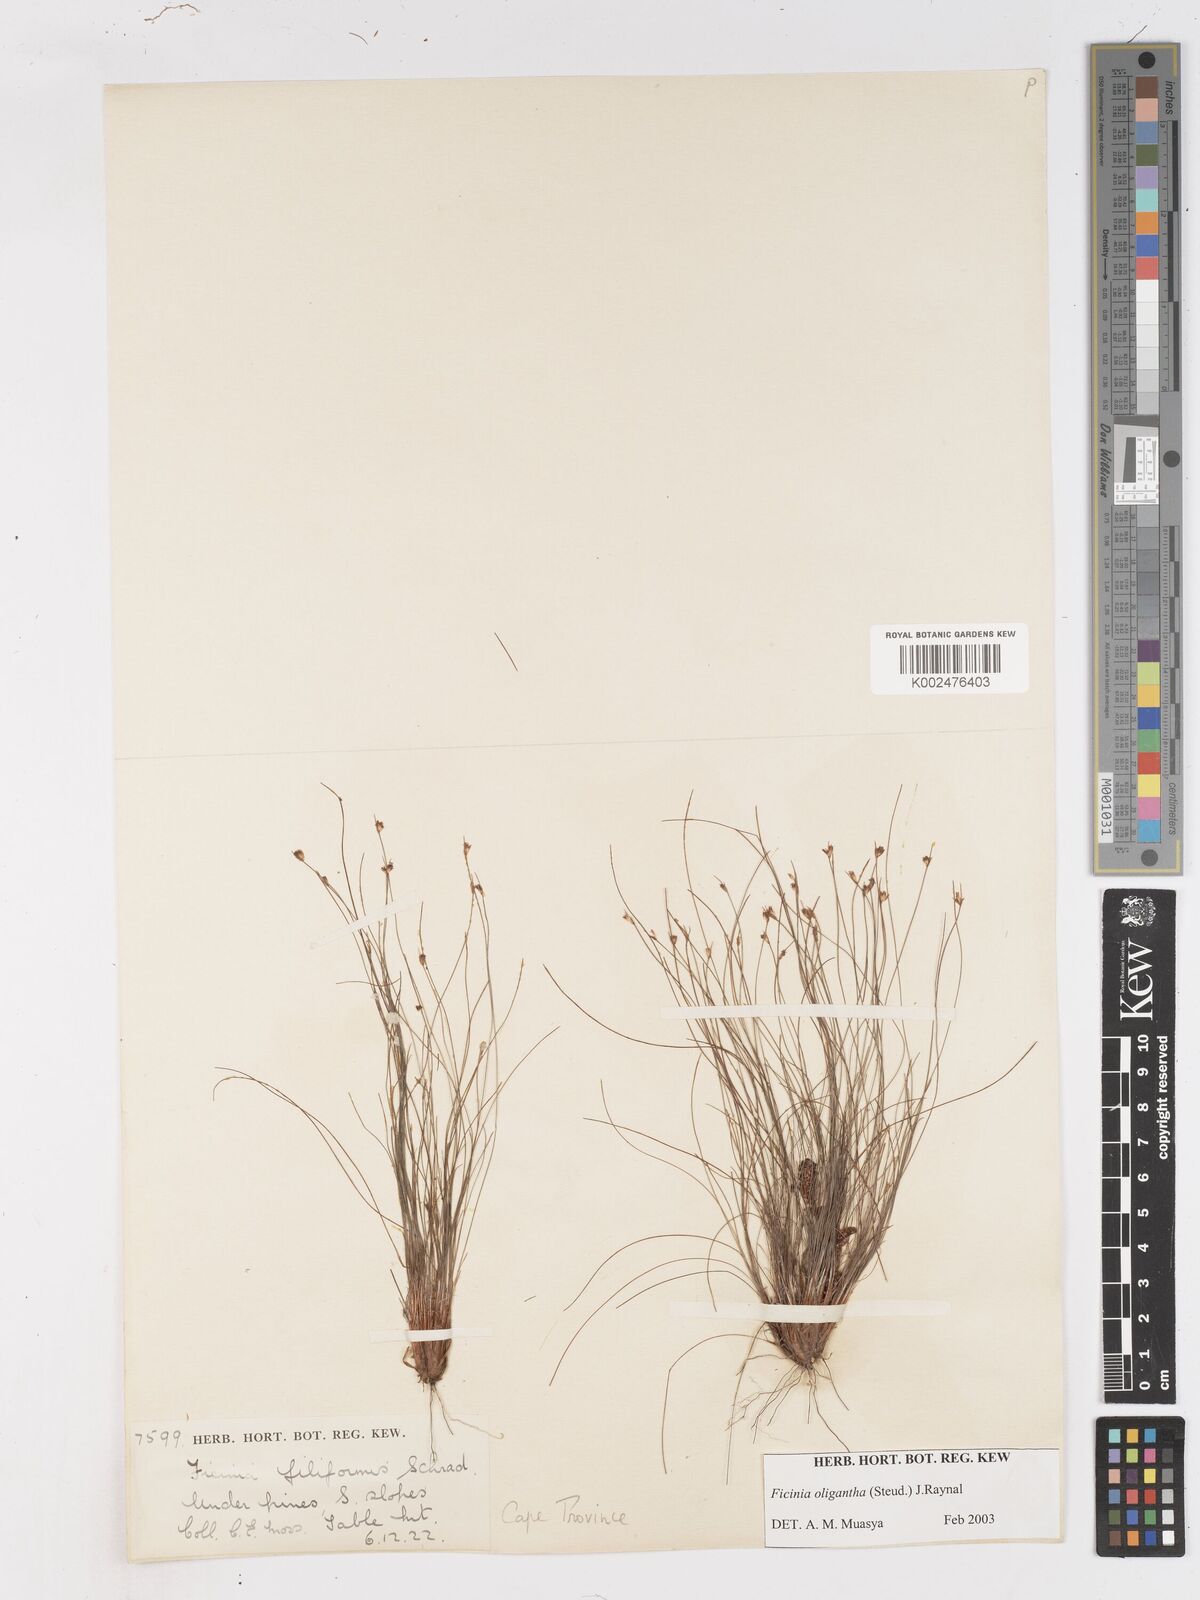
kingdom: Plantae
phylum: Tracheophyta
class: Liliopsida
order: Poales
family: Cyperaceae
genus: Ficinia
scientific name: Ficinia oligantha
